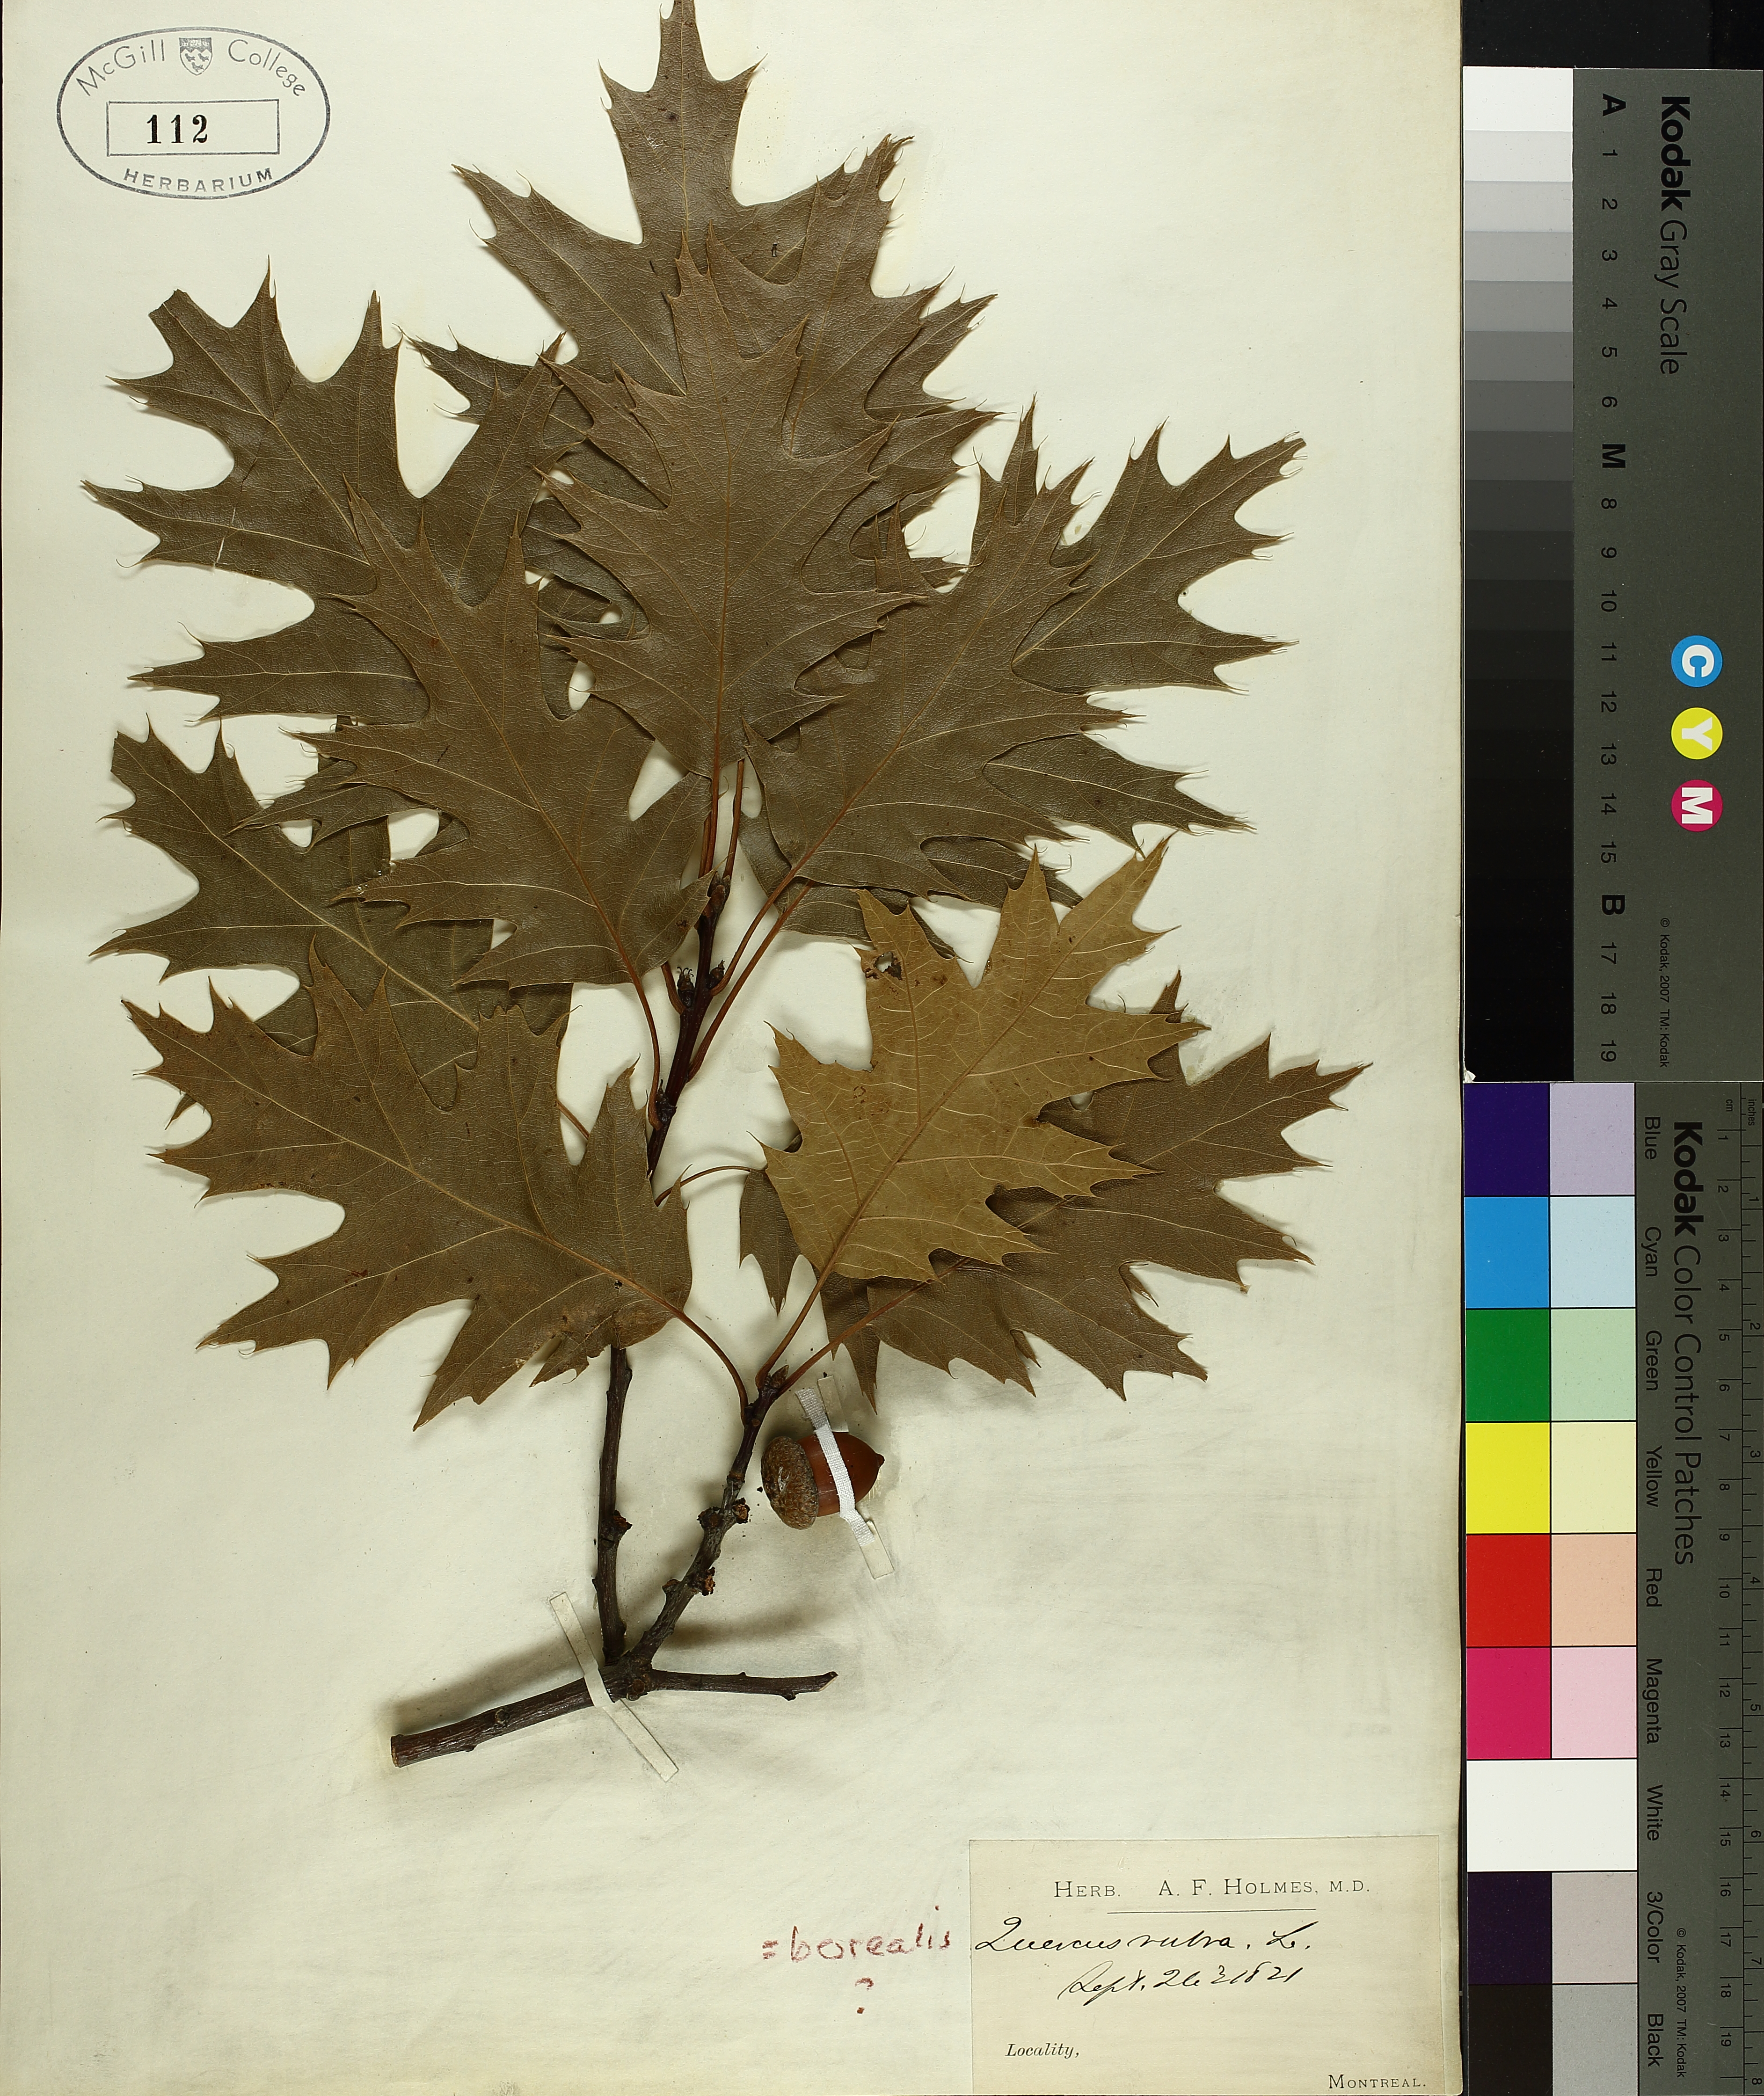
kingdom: Plantae
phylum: Tracheophyta
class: Magnoliopsida
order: Fagales
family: Fagaceae
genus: Quercus
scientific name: Quercus rubra
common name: Red oak
